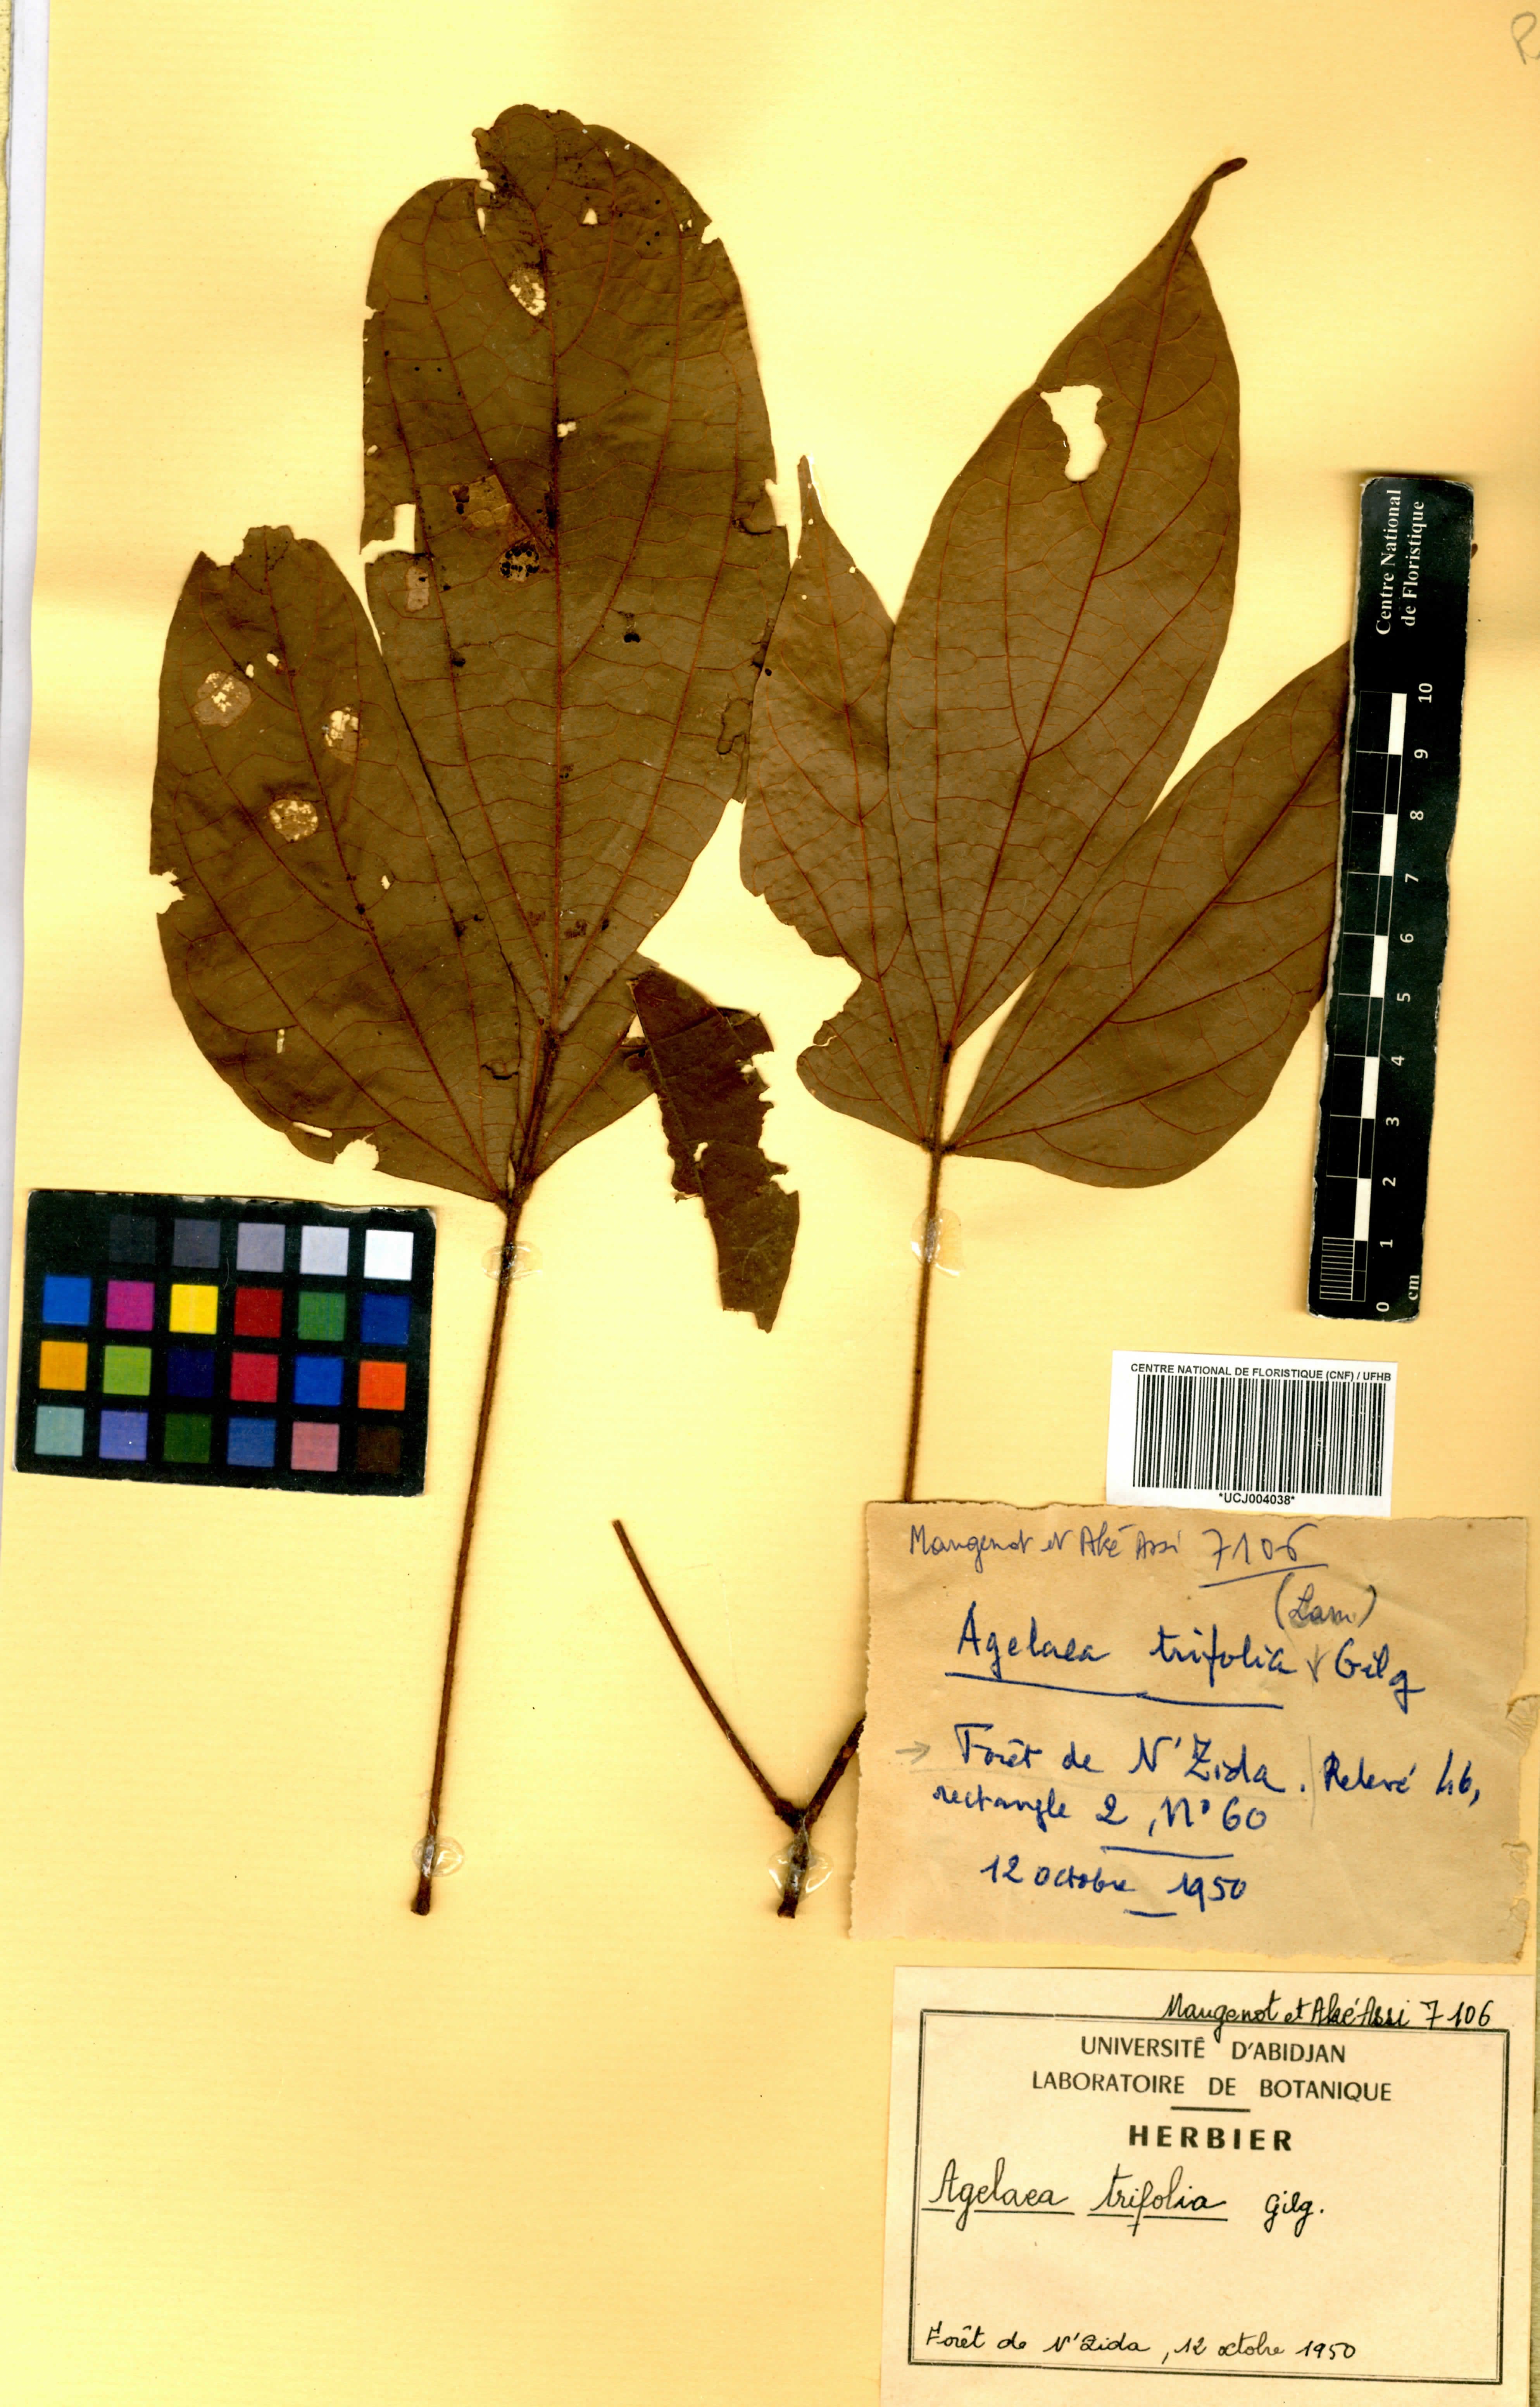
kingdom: Plantae
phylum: Tracheophyta
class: Magnoliopsida
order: Oxalidales
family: Connaraceae
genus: Agelaea
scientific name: Agelaea pentagyna
